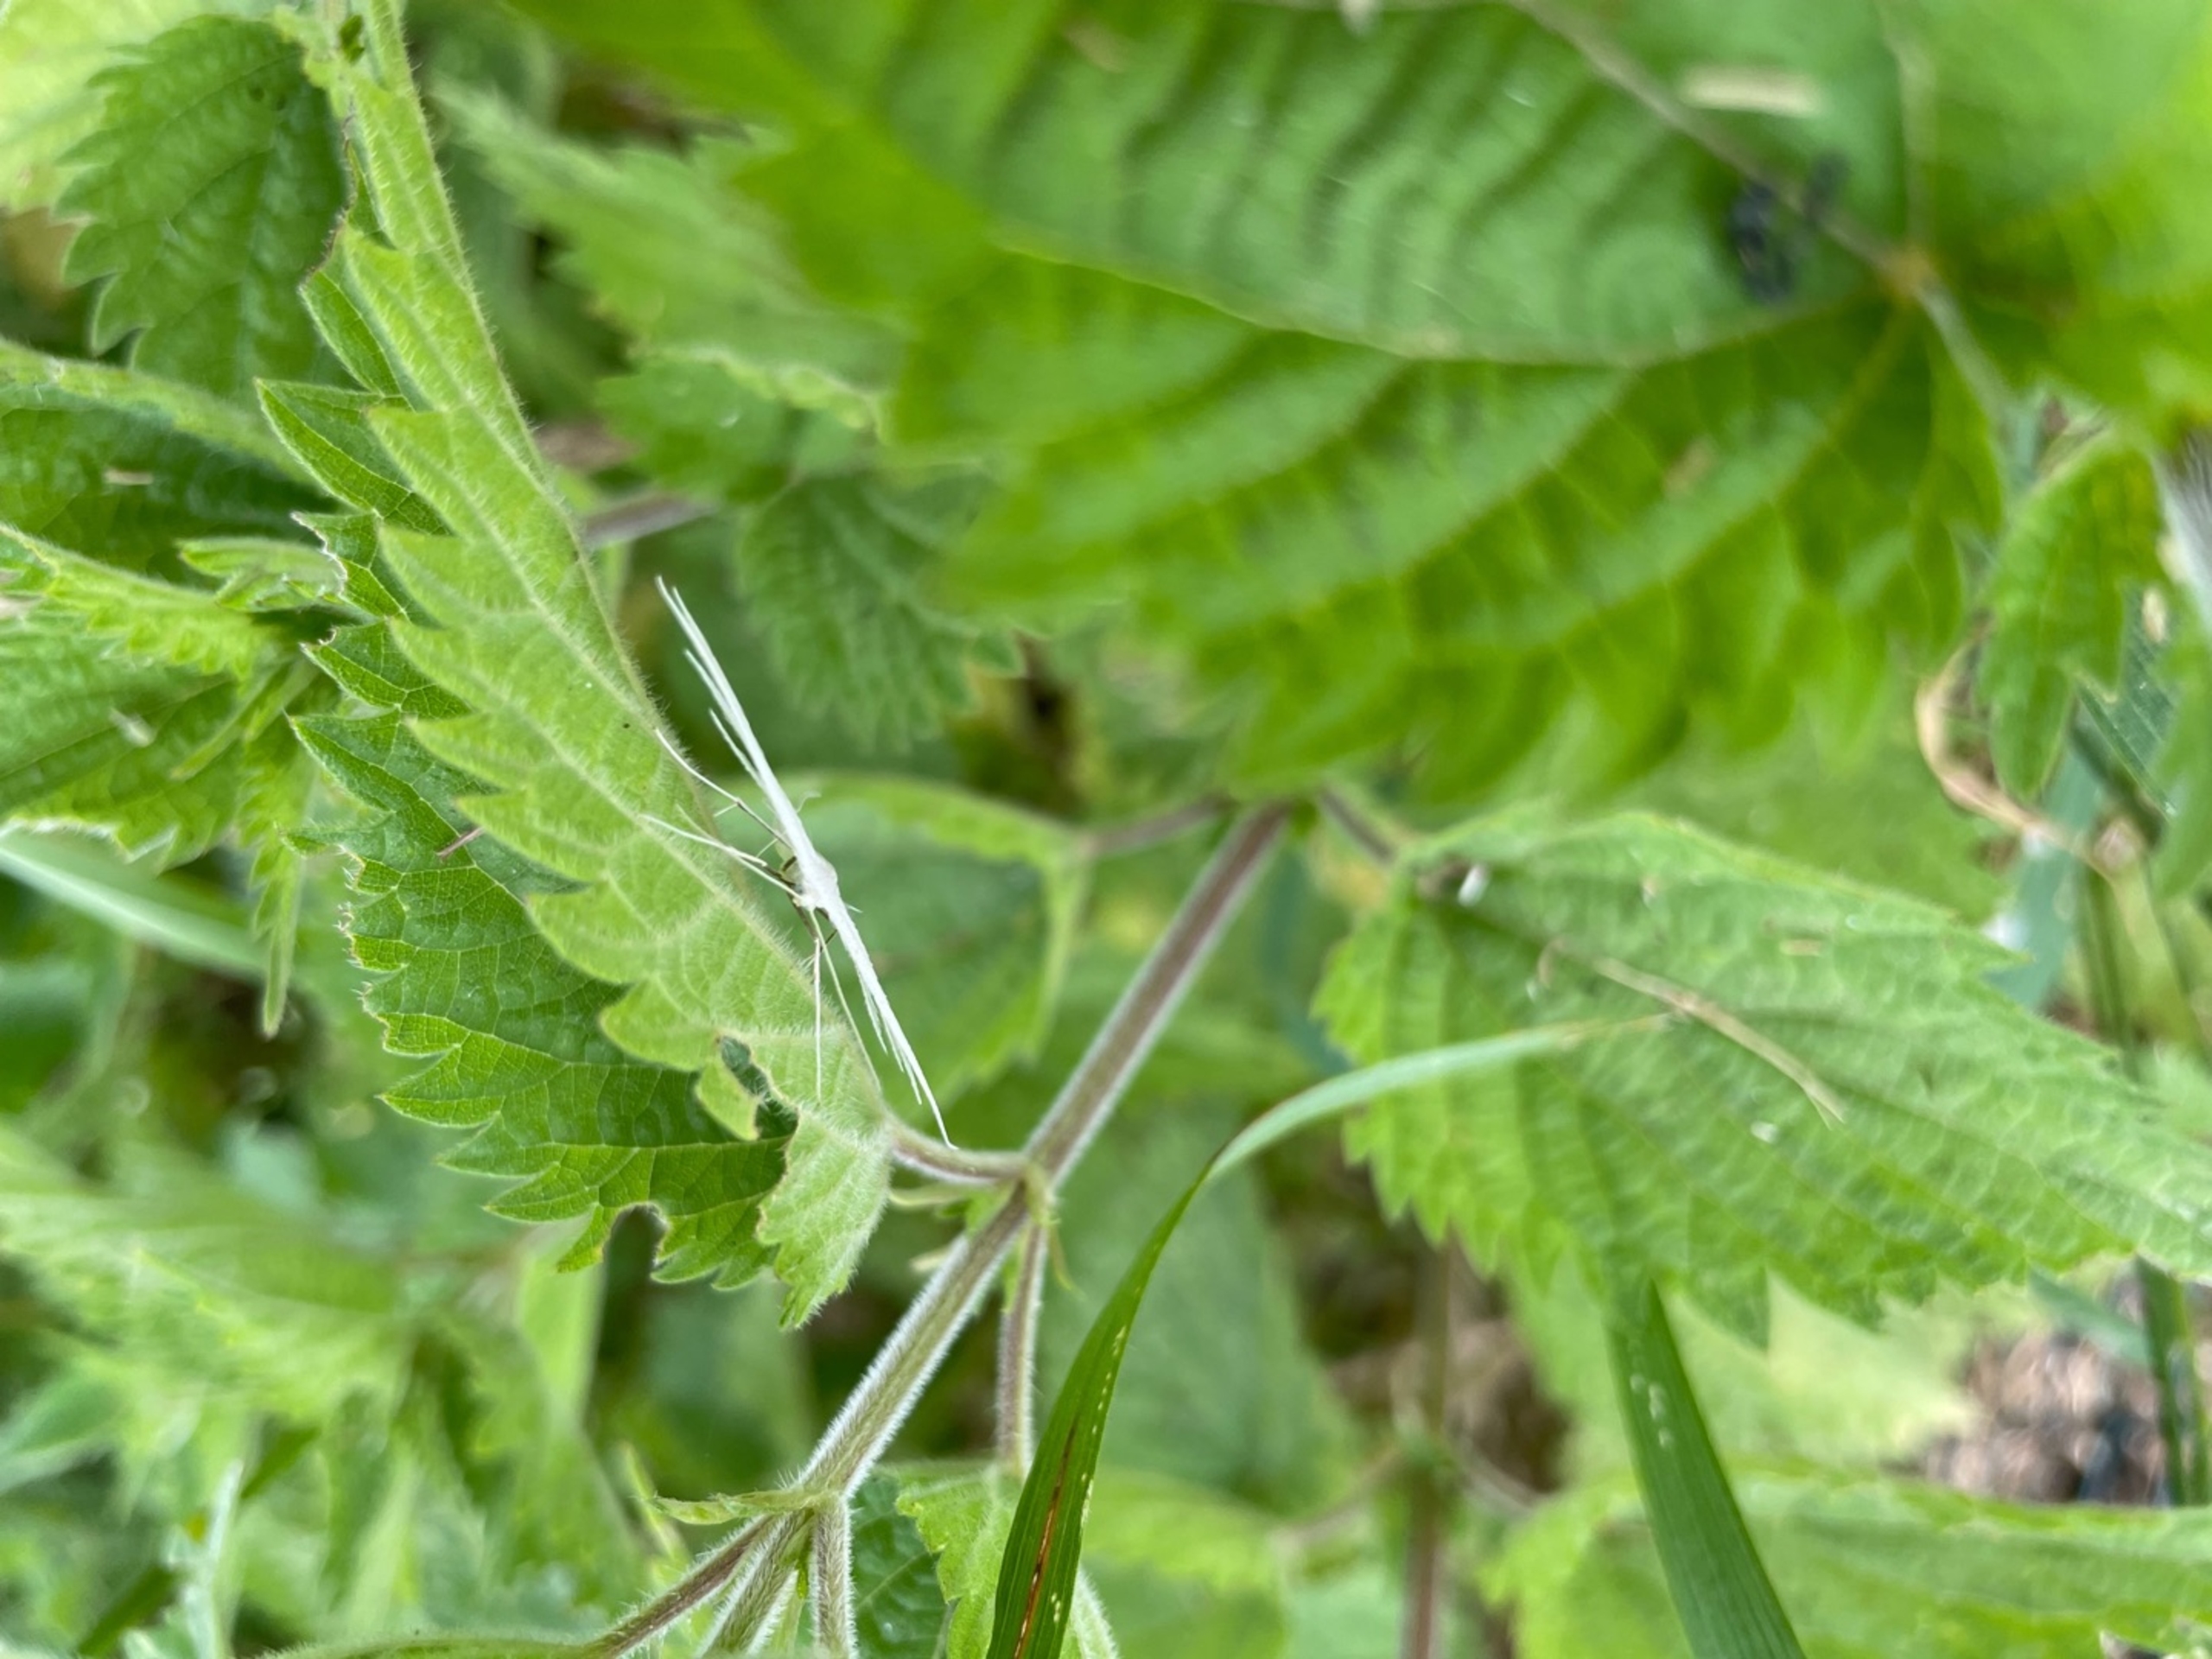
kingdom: Animalia
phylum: Arthropoda
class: Insecta
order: Lepidoptera
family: Pterophoridae
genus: Pterophorus
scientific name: Pterophorus pentadactyla
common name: Hvidt fjermøl
